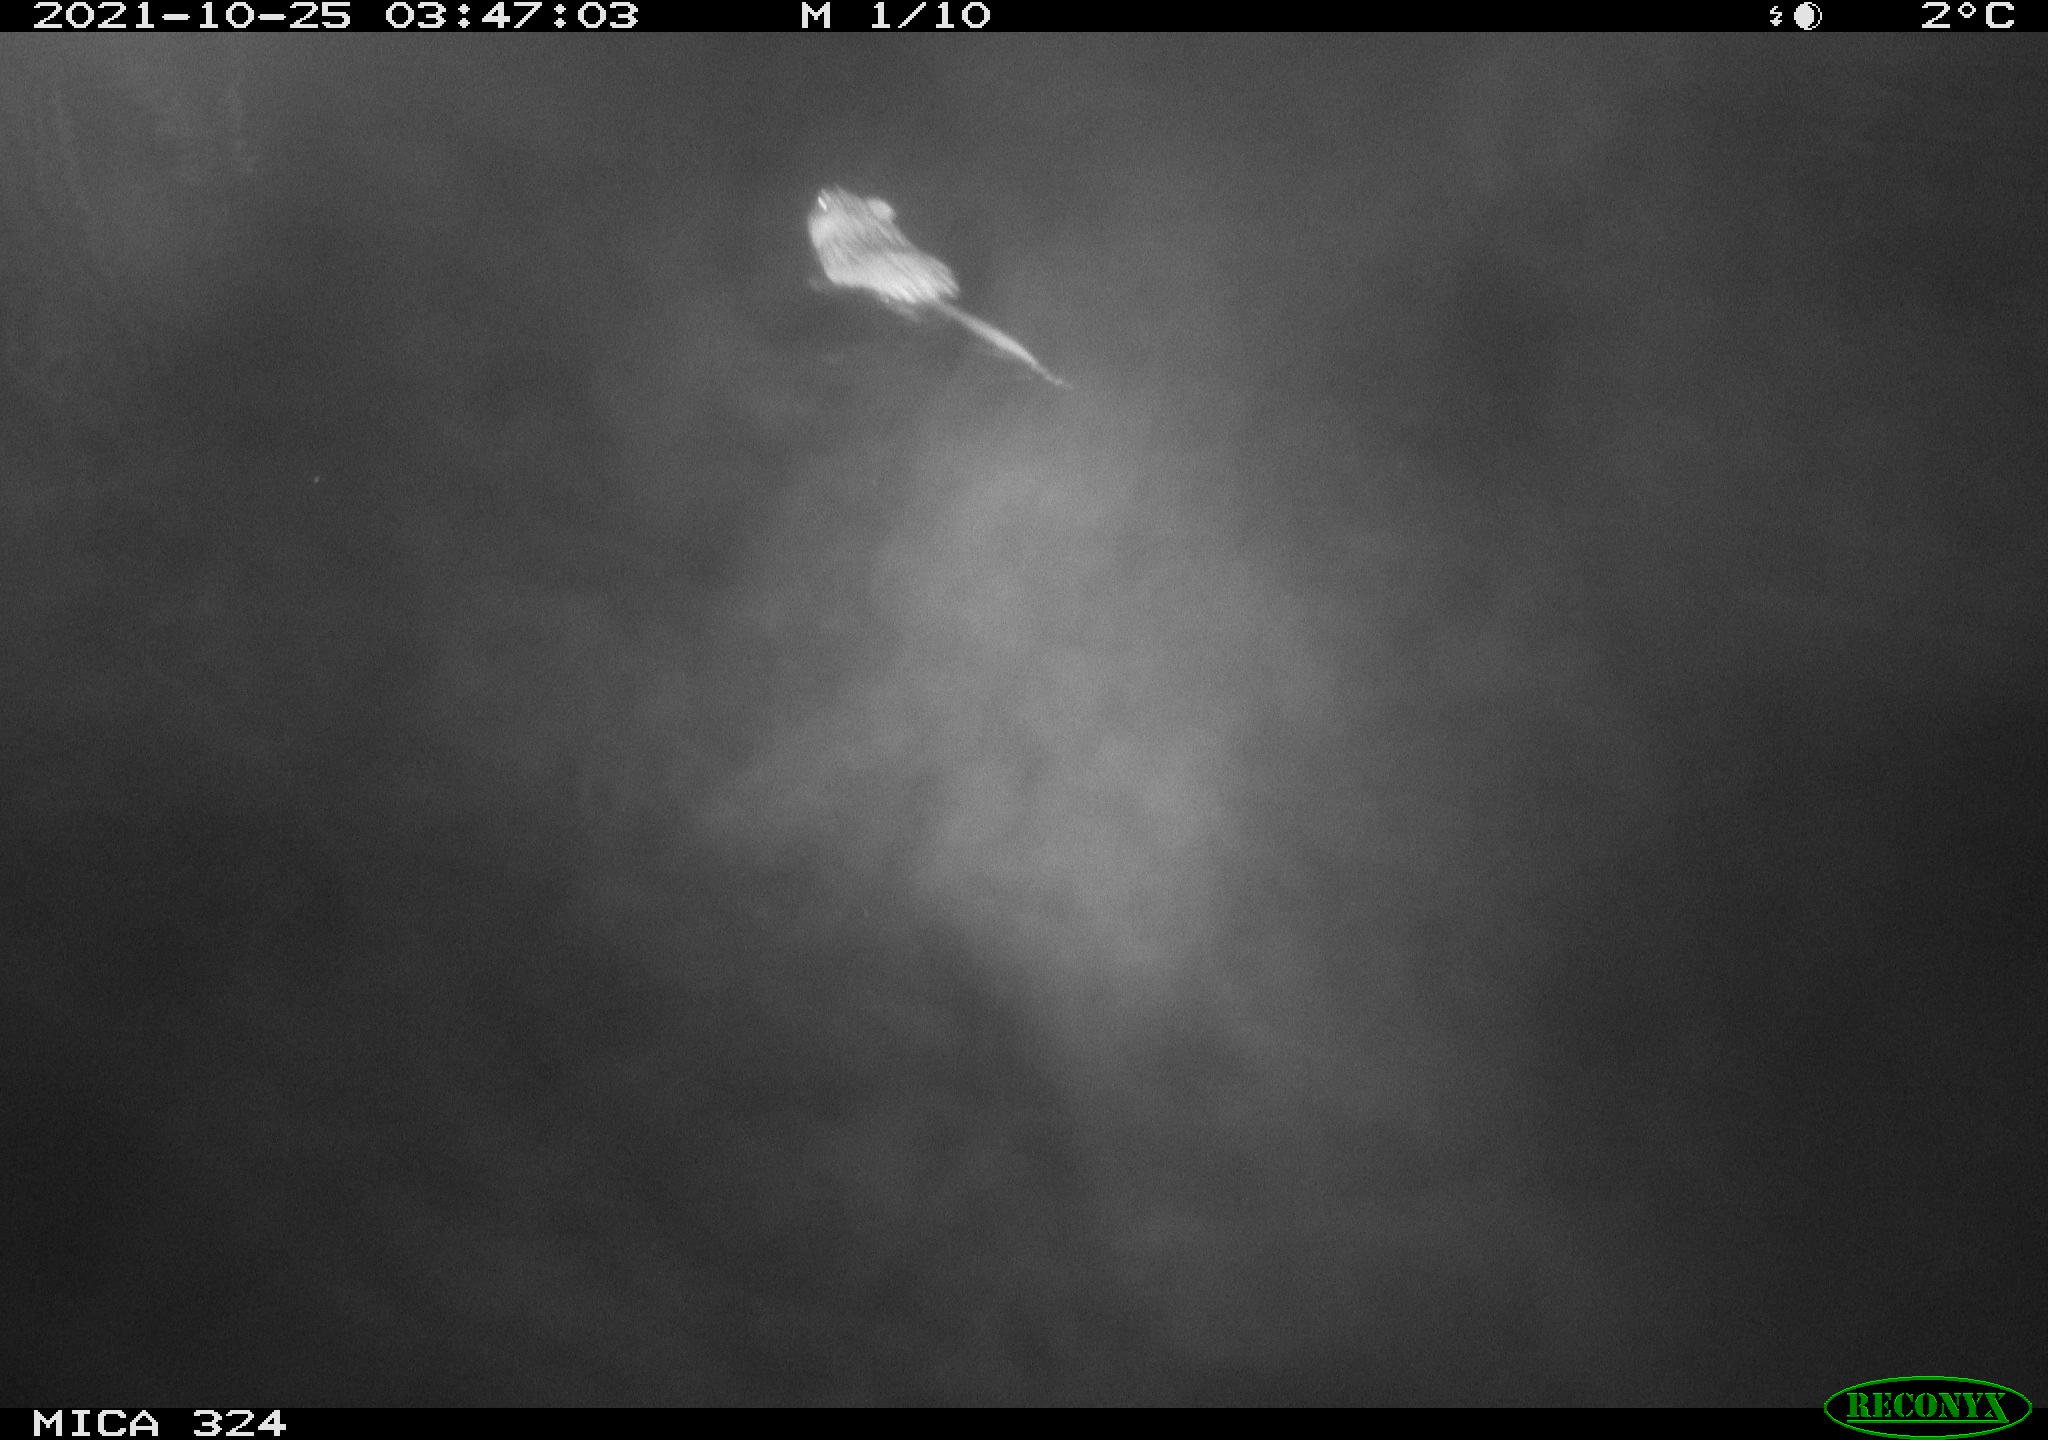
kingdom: Animalia
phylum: Chordata
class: Mammalia
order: Rodentia
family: Cricetidae
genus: Ondatra
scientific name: Ondatra zibethicus
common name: Muskrat
